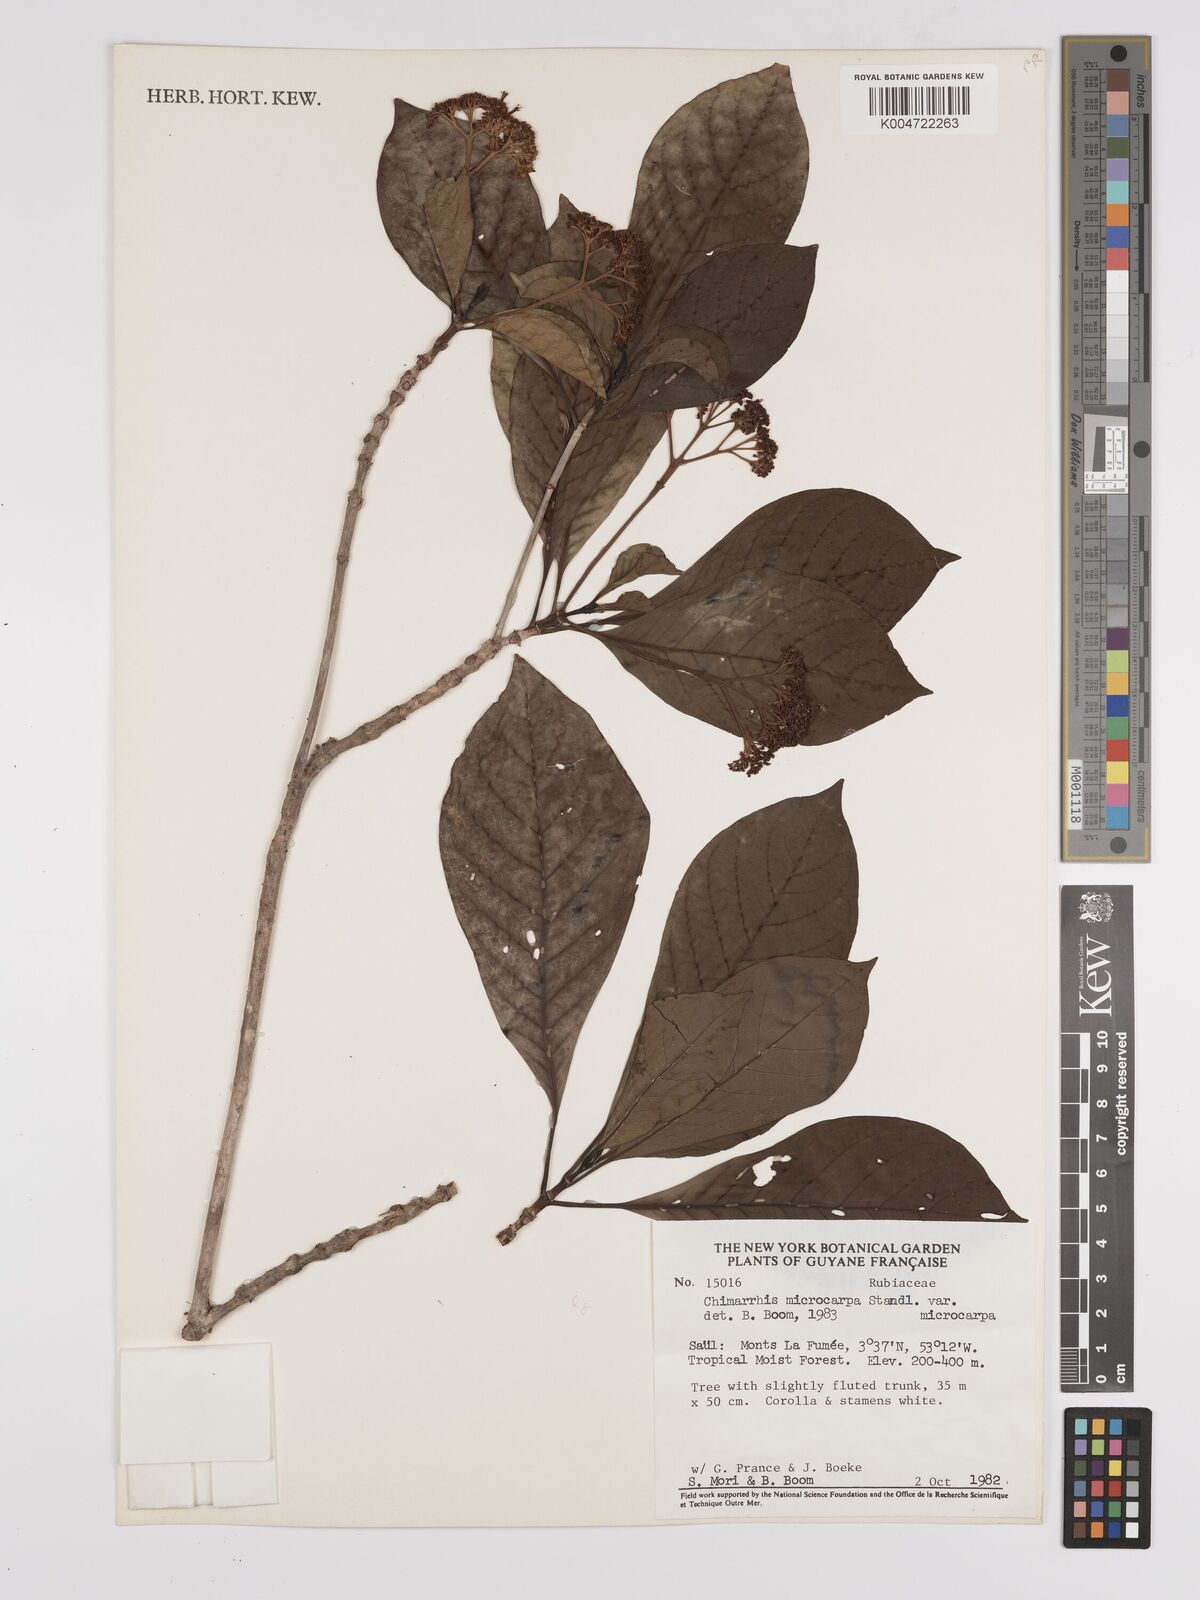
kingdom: Plantae
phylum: Tracheophyta
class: Magnoliopsida
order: Gentianales
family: Rubiaceae
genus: Chimarrhis
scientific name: Chimarrhis microcarpa
